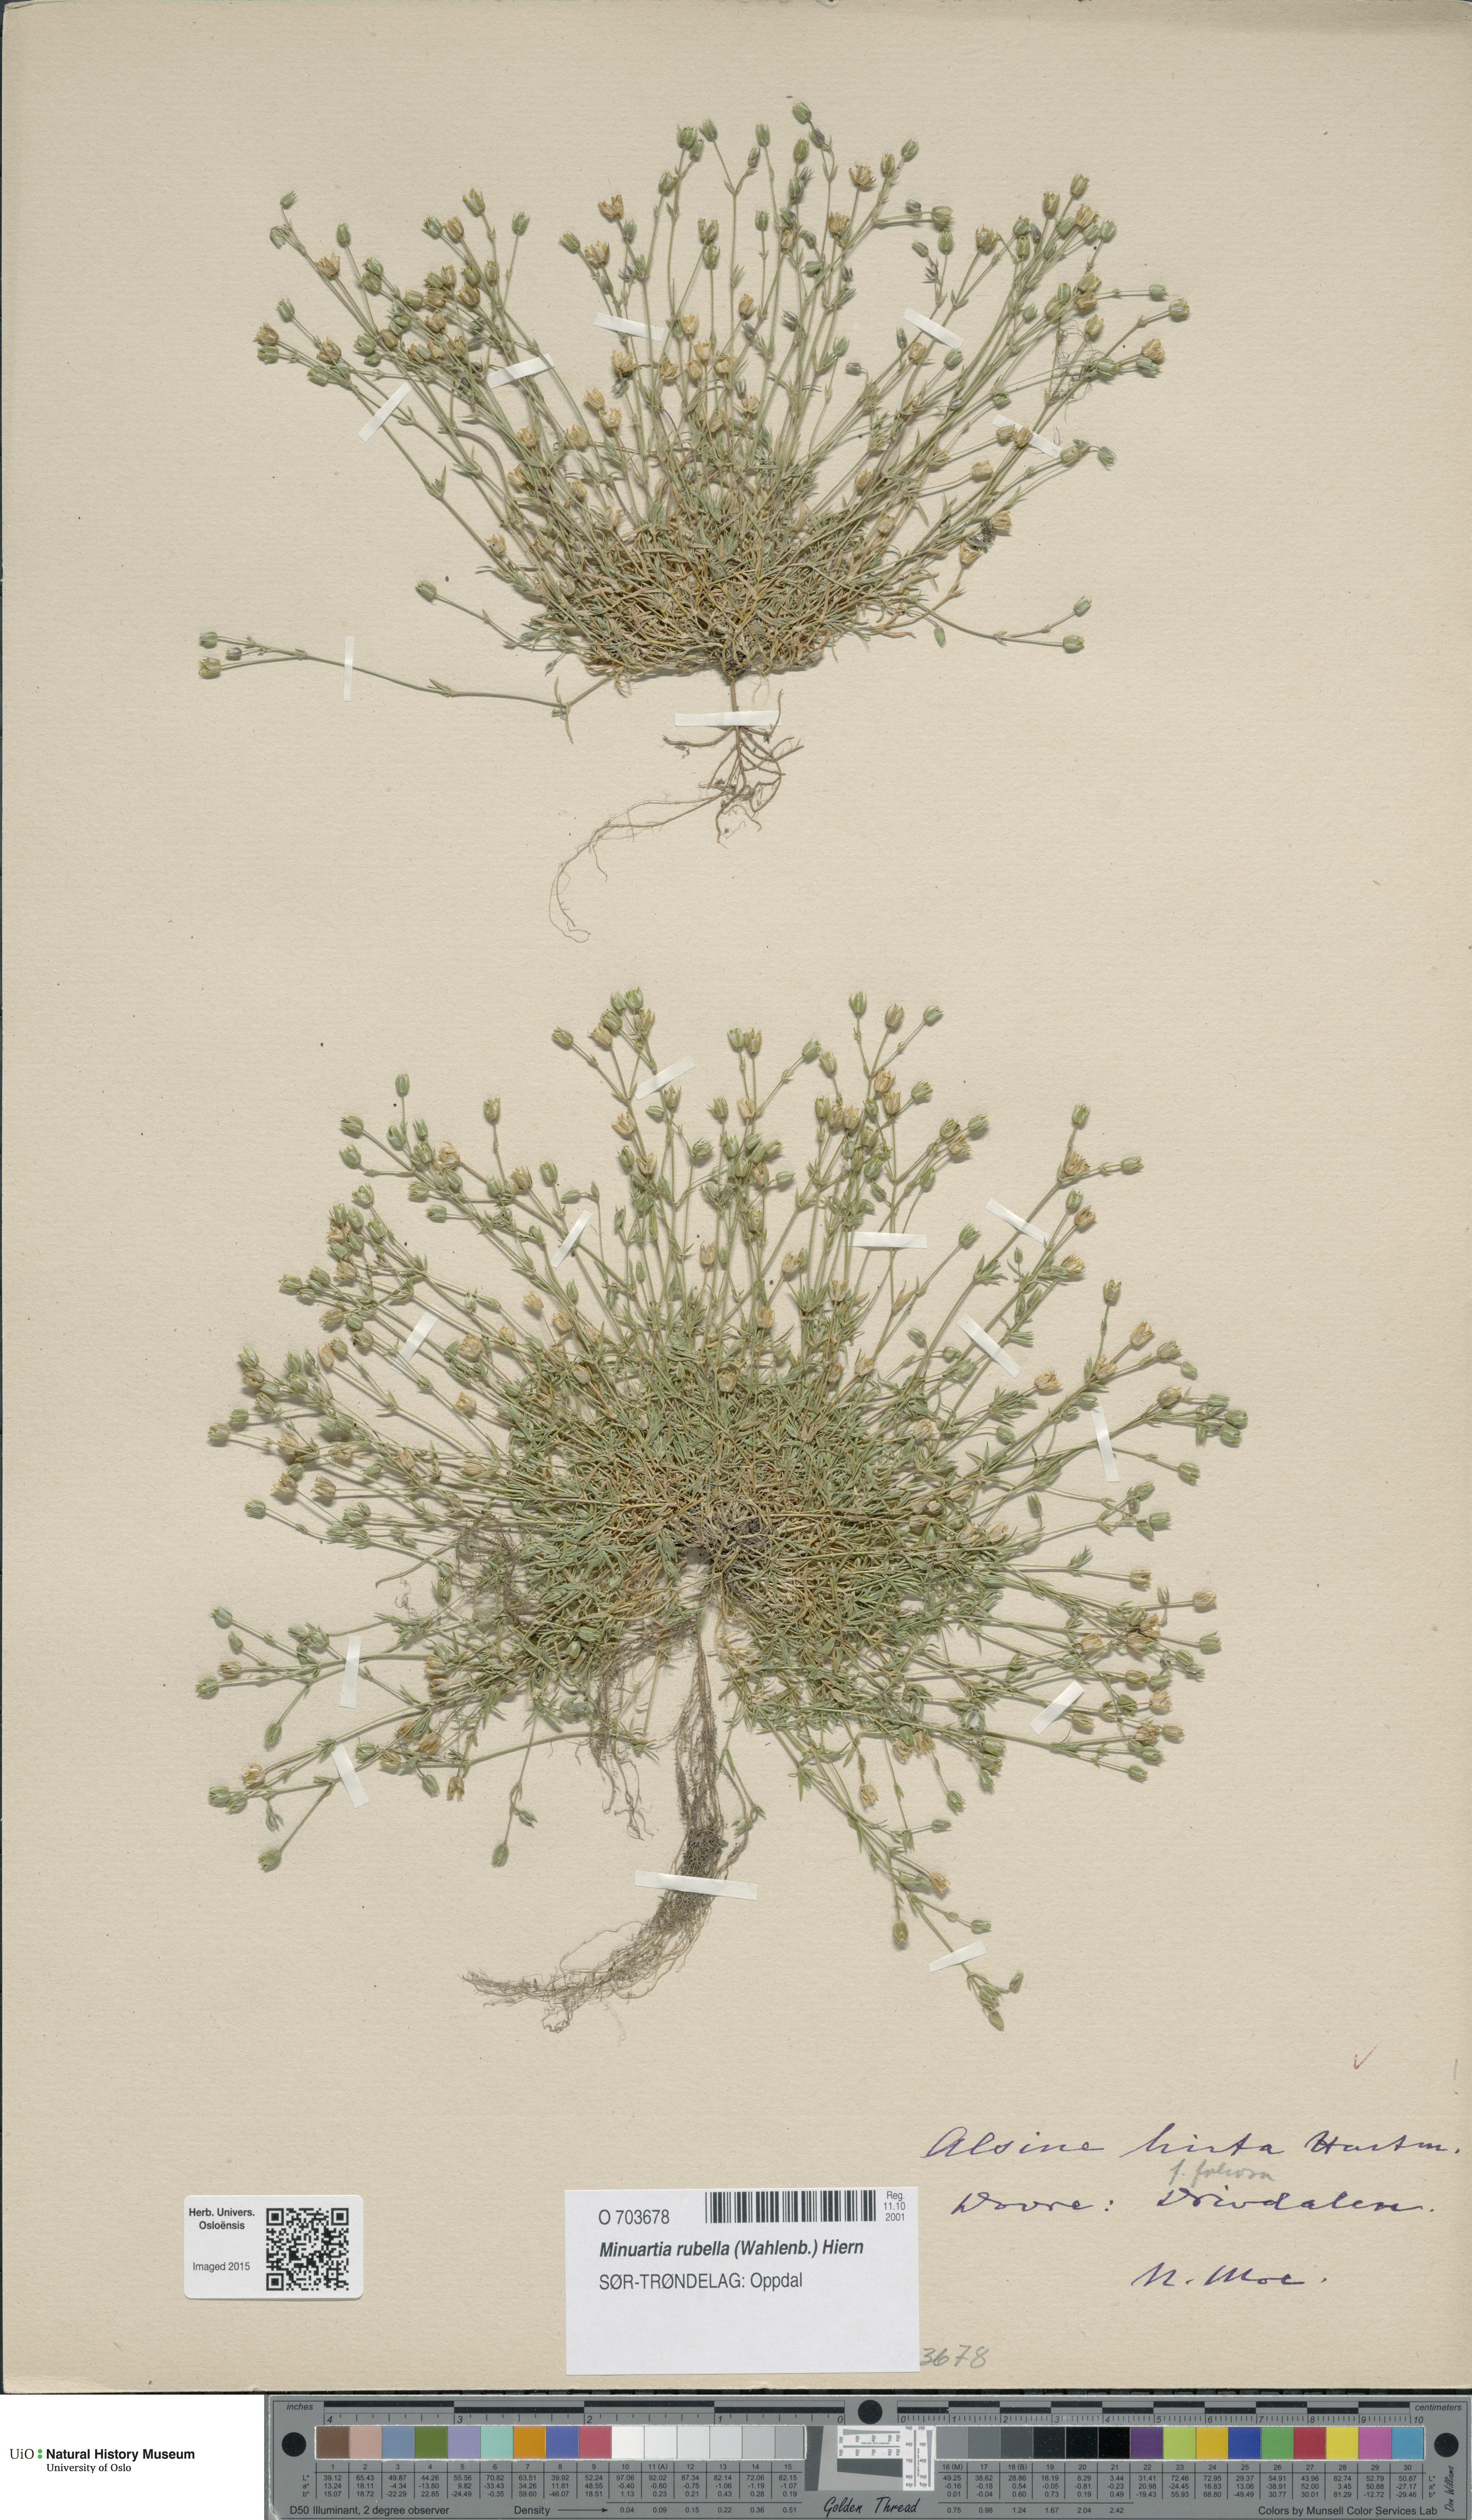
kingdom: Plantae
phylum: Tracheophyta
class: Magnoliopsida
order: Caryophyllales
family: Caryophyllaceae
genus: Sabulina
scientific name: Sabulina rubella
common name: Beautiful sandwort
